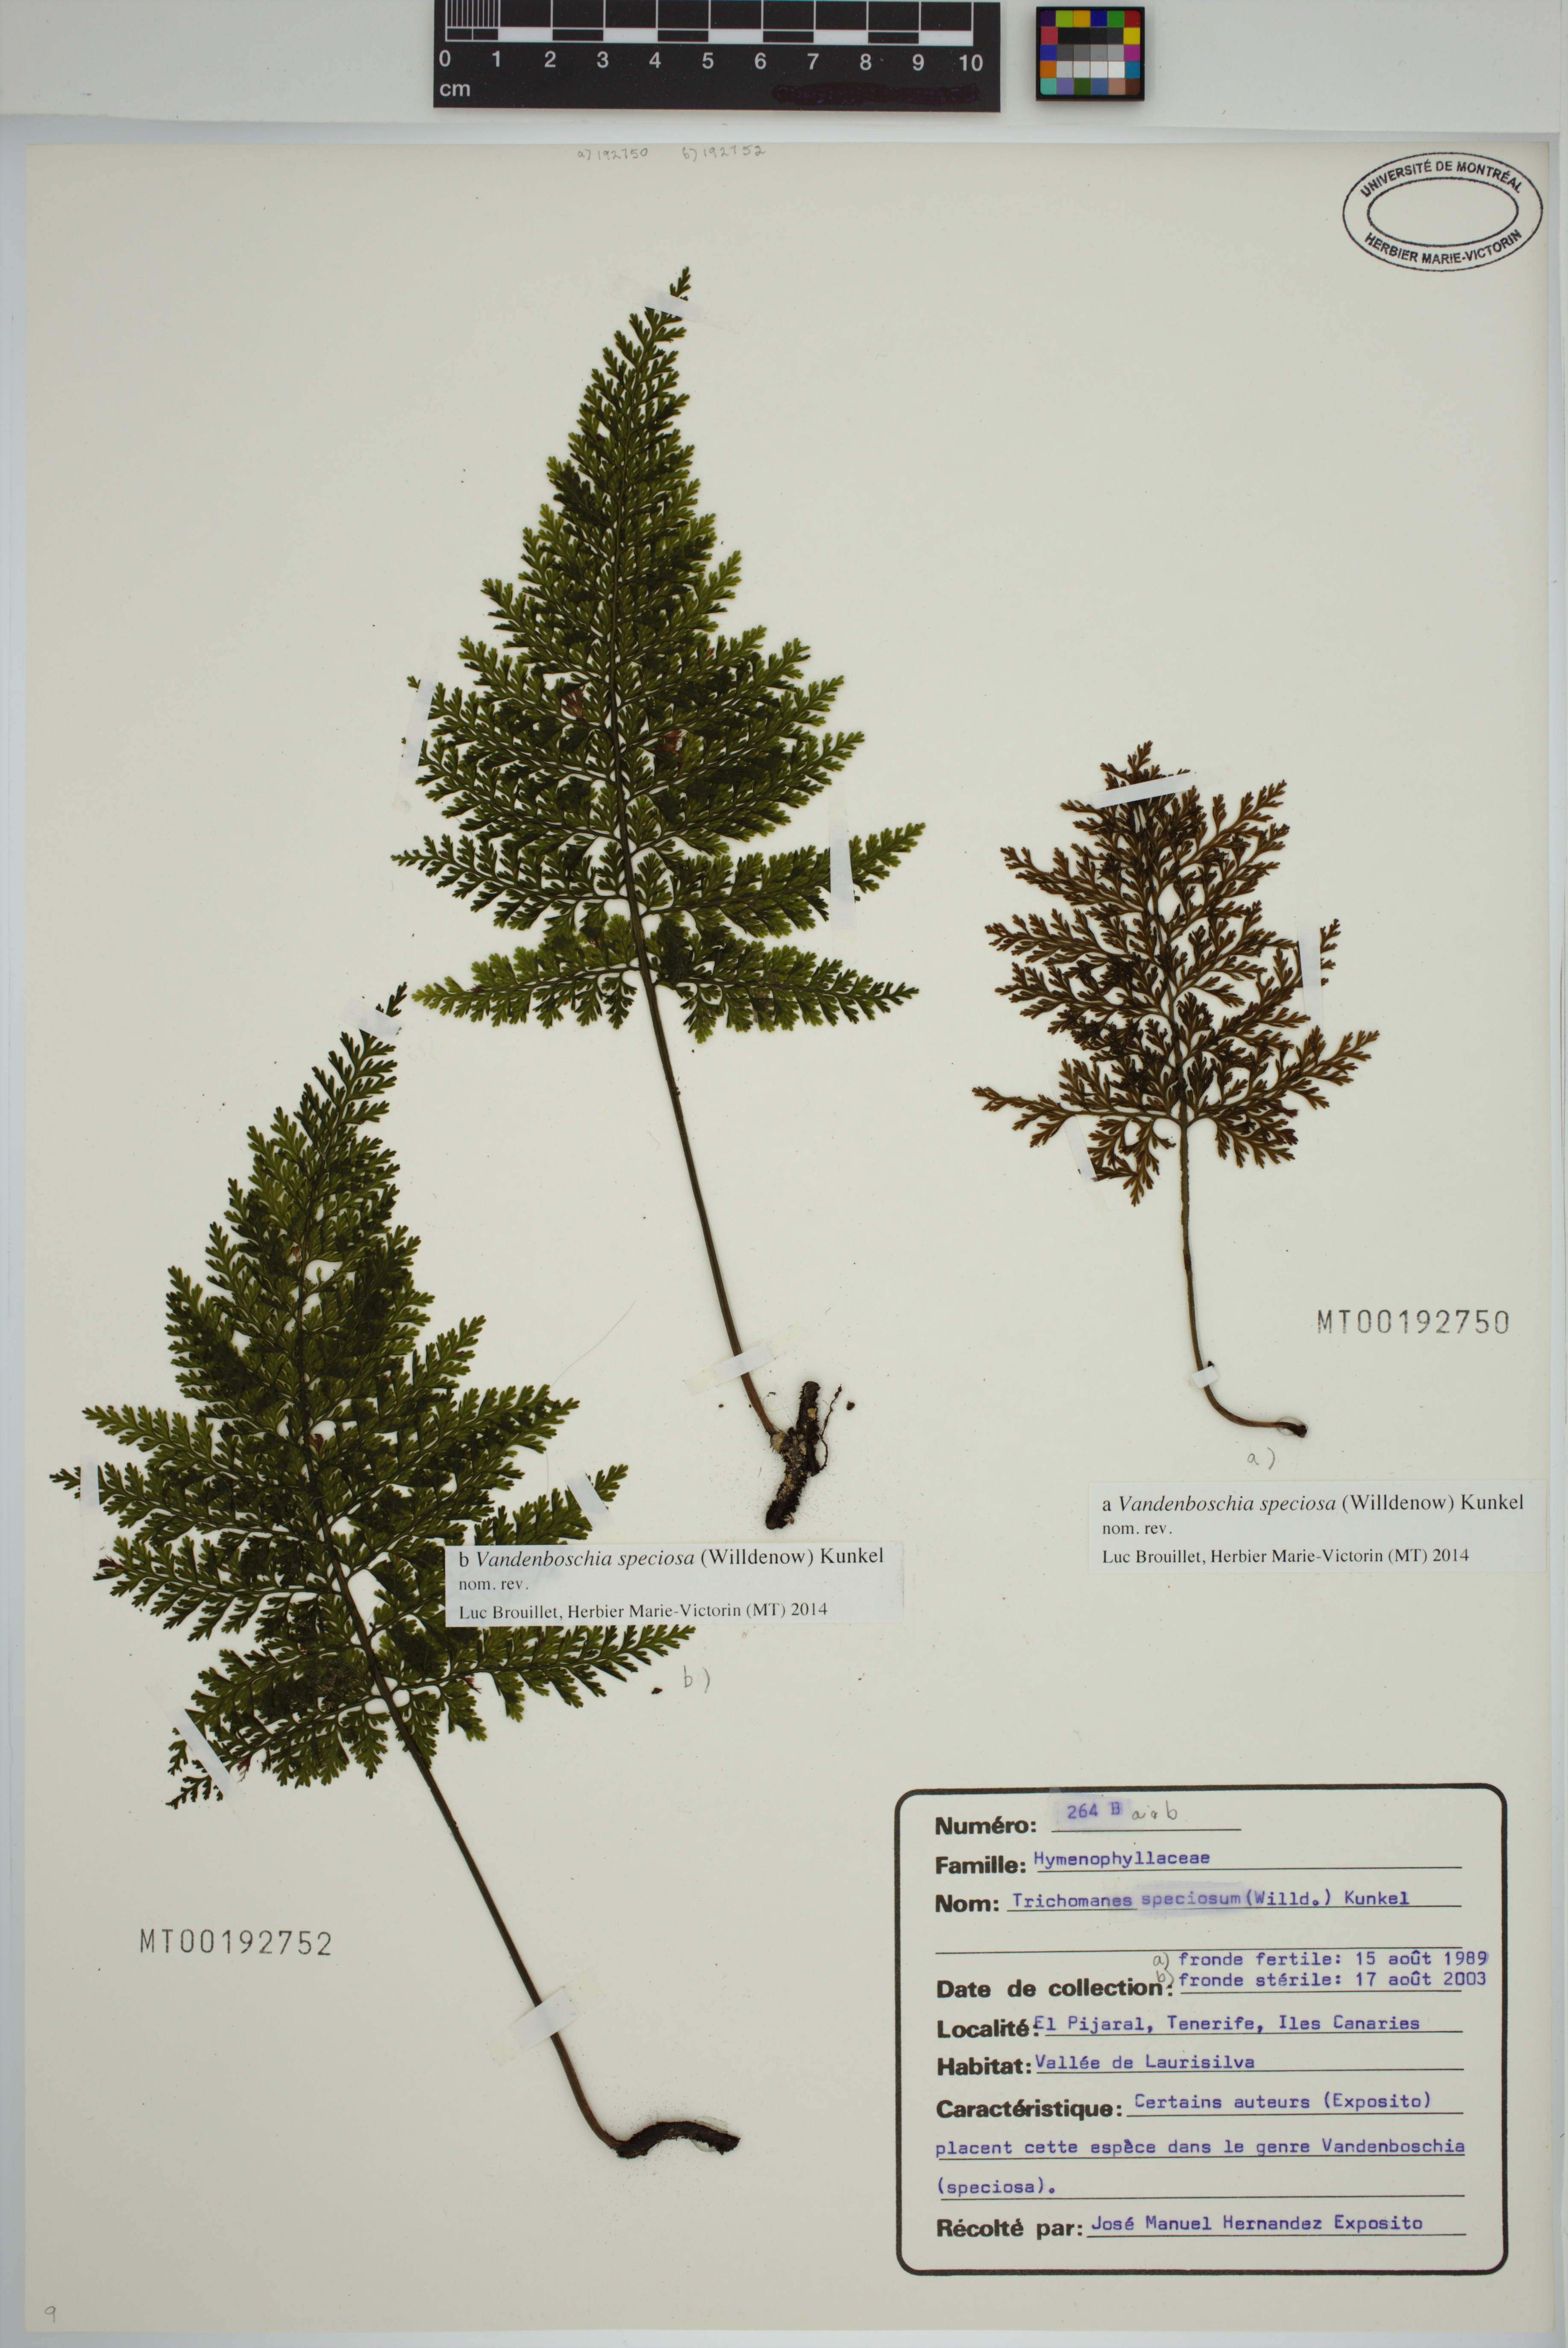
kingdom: Plantae
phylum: Tracheophyta
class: Polypodiopsida
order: Hymenophyllales
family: Hymenophyllaceae
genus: Vandenboschia
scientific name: Vandenboschia speciosa
